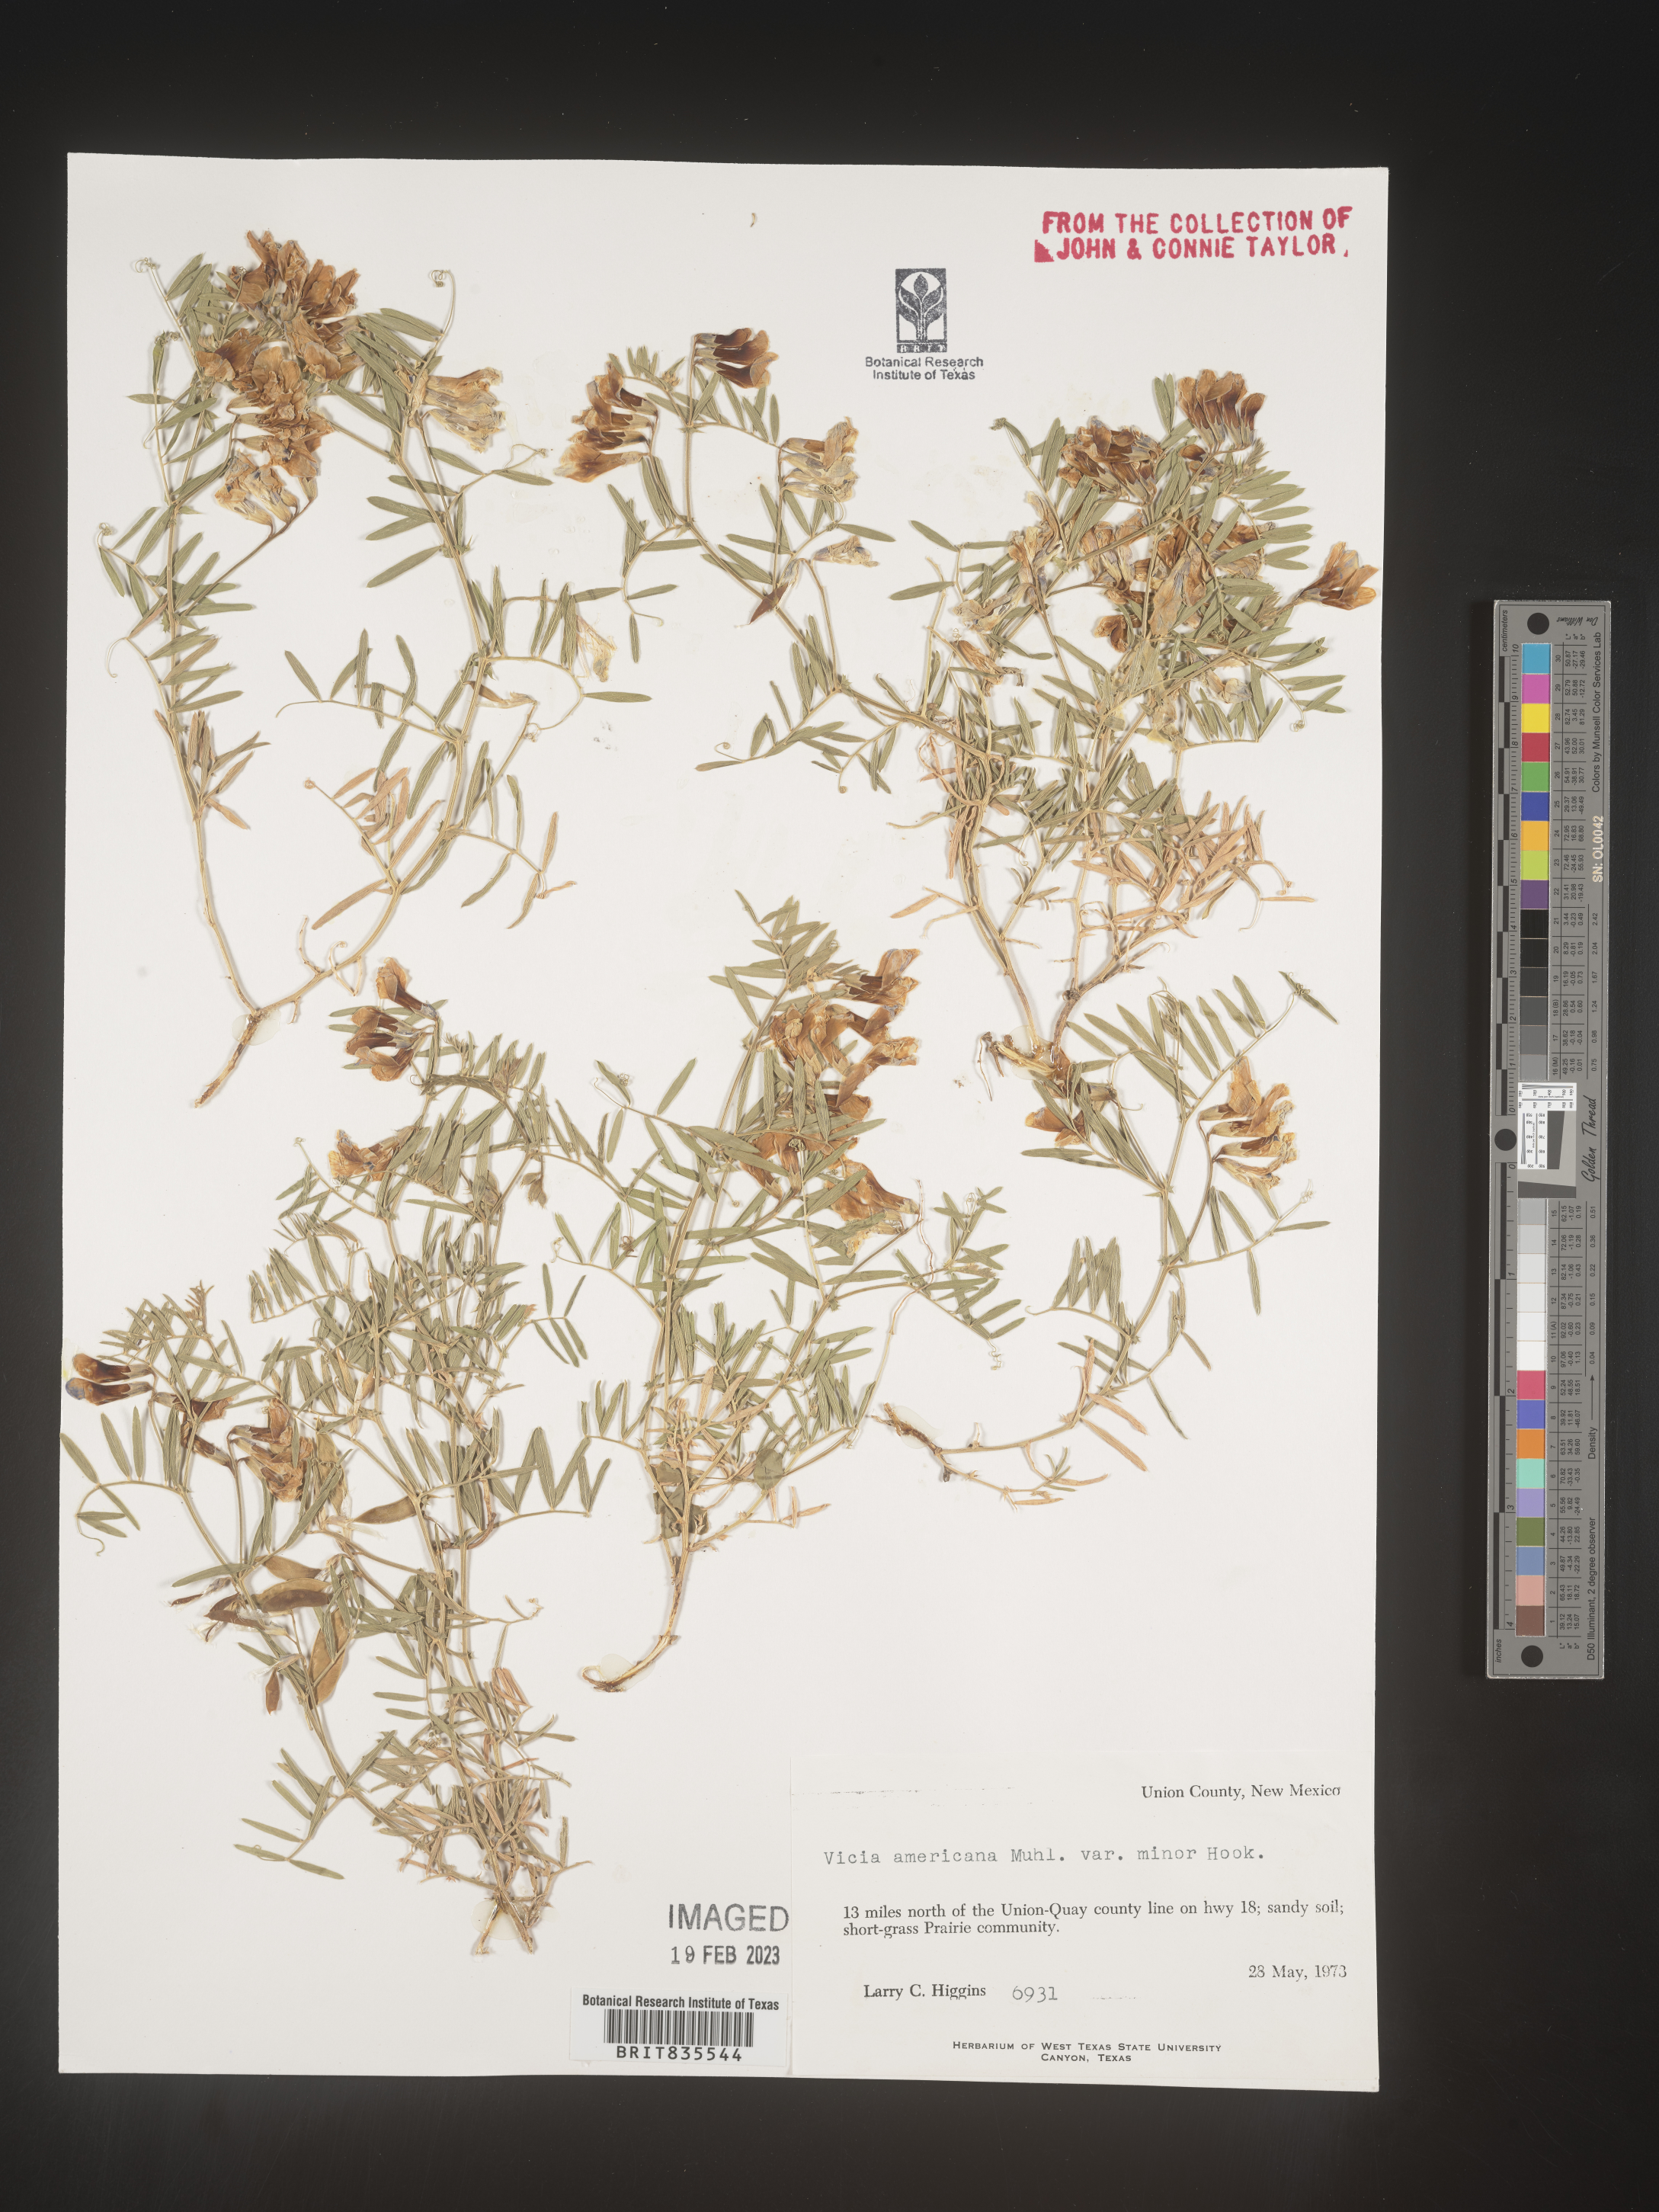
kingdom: Plantae
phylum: Tracheophyta
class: Magnoliopsida
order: Fabales
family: Fabaceae
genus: Vicia
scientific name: Vicia americana
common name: American vetch
